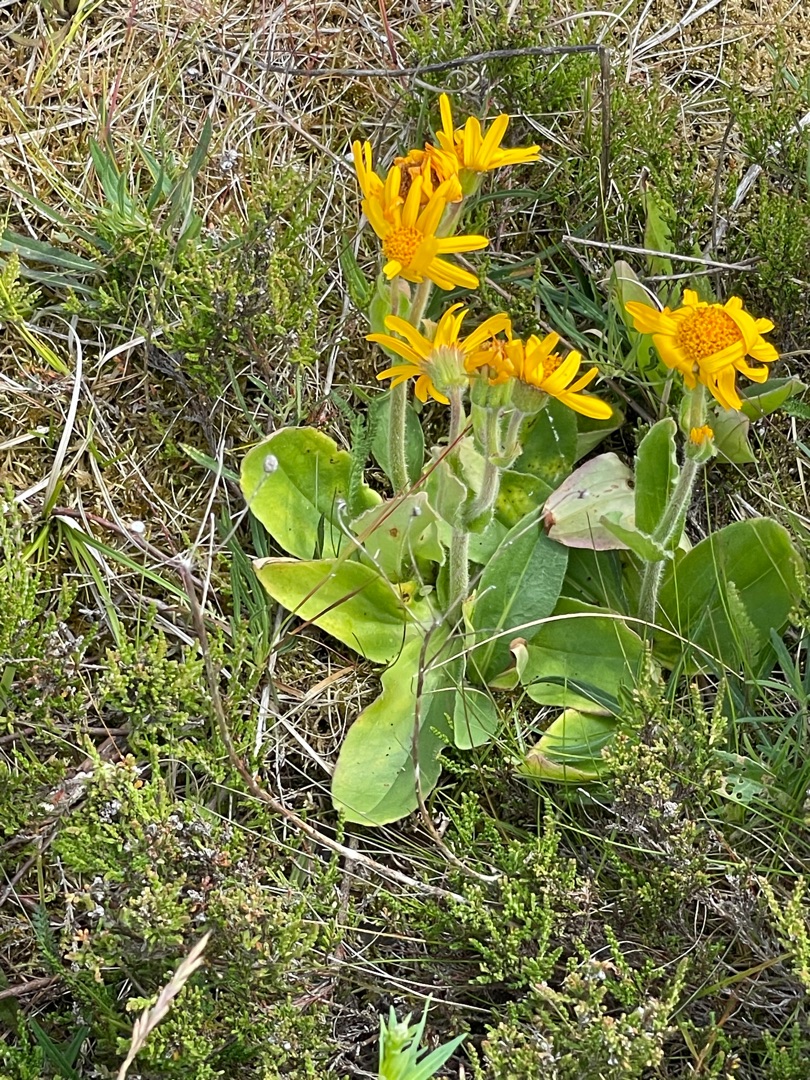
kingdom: Plantae
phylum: Tracheophyta
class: Magnoliopsida
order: Asterales
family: Asteraceae
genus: Arnica
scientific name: Arnica montana
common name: Guldblomme
